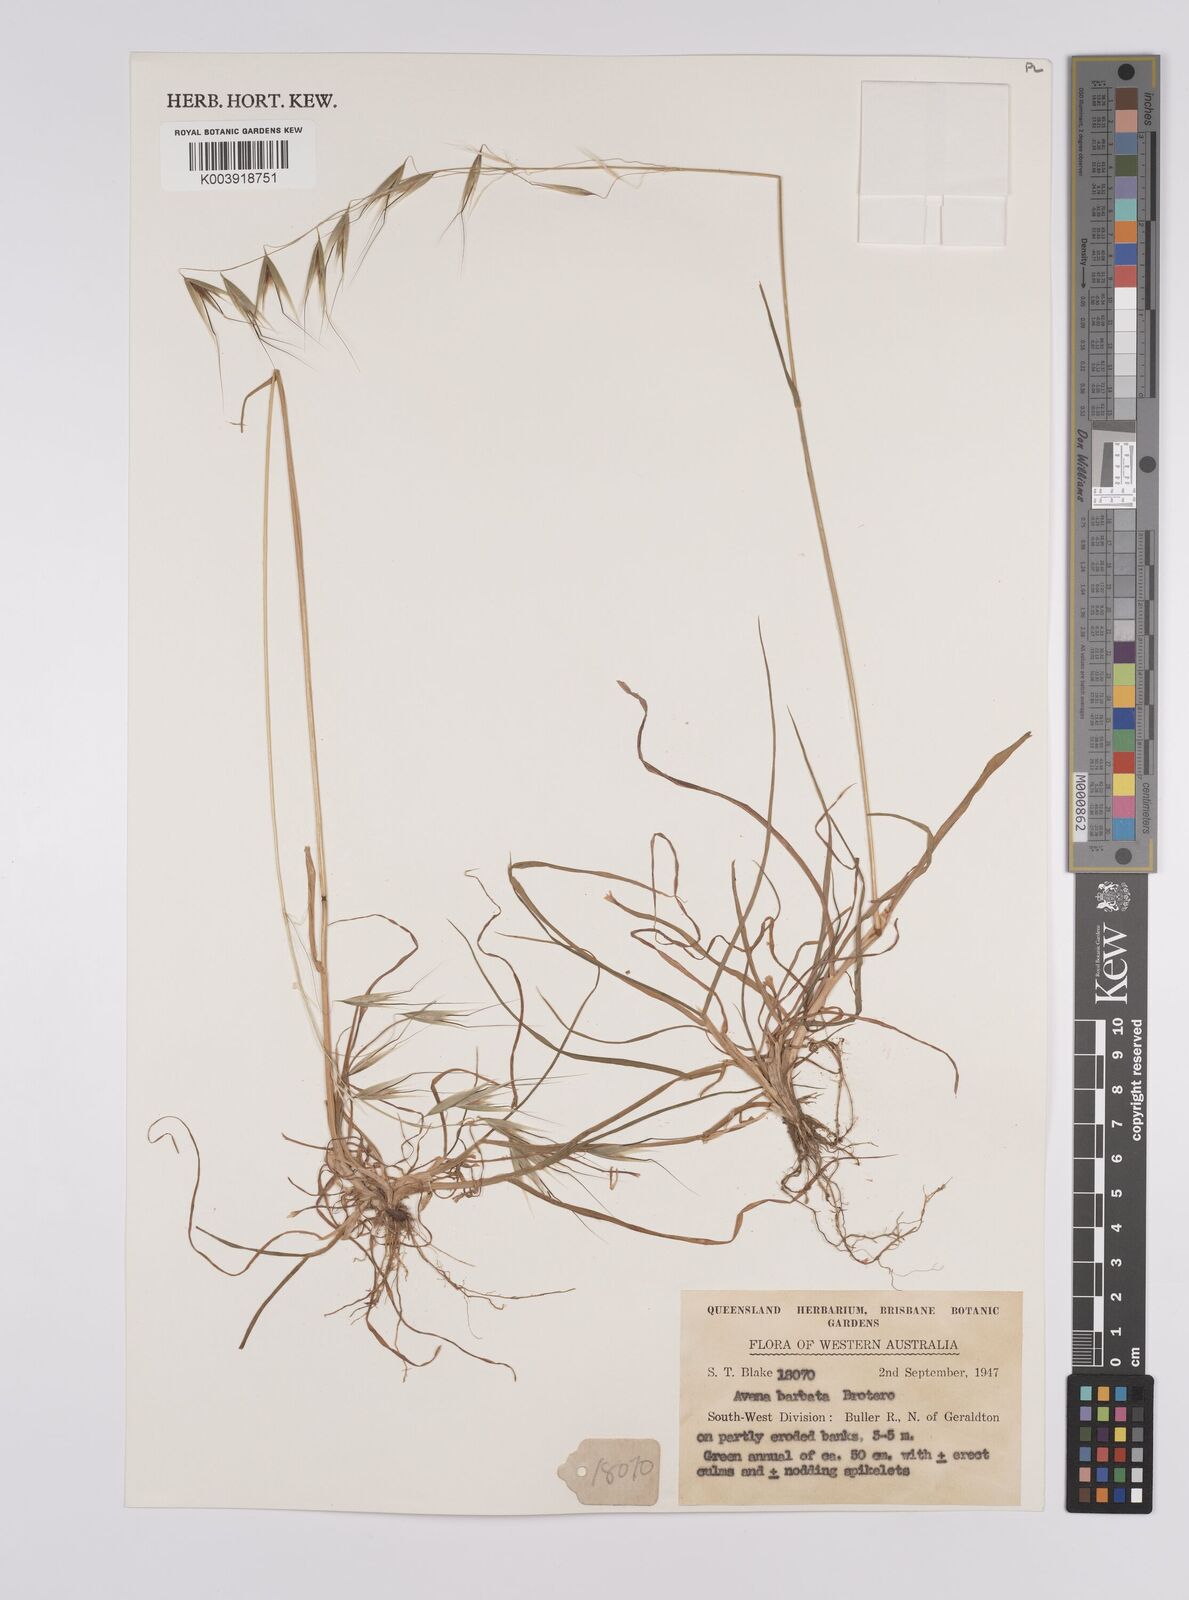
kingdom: Plantae
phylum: Tracheophyta
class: Liliopsida
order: Poales
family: Poaceae
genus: Avena
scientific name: Avena
